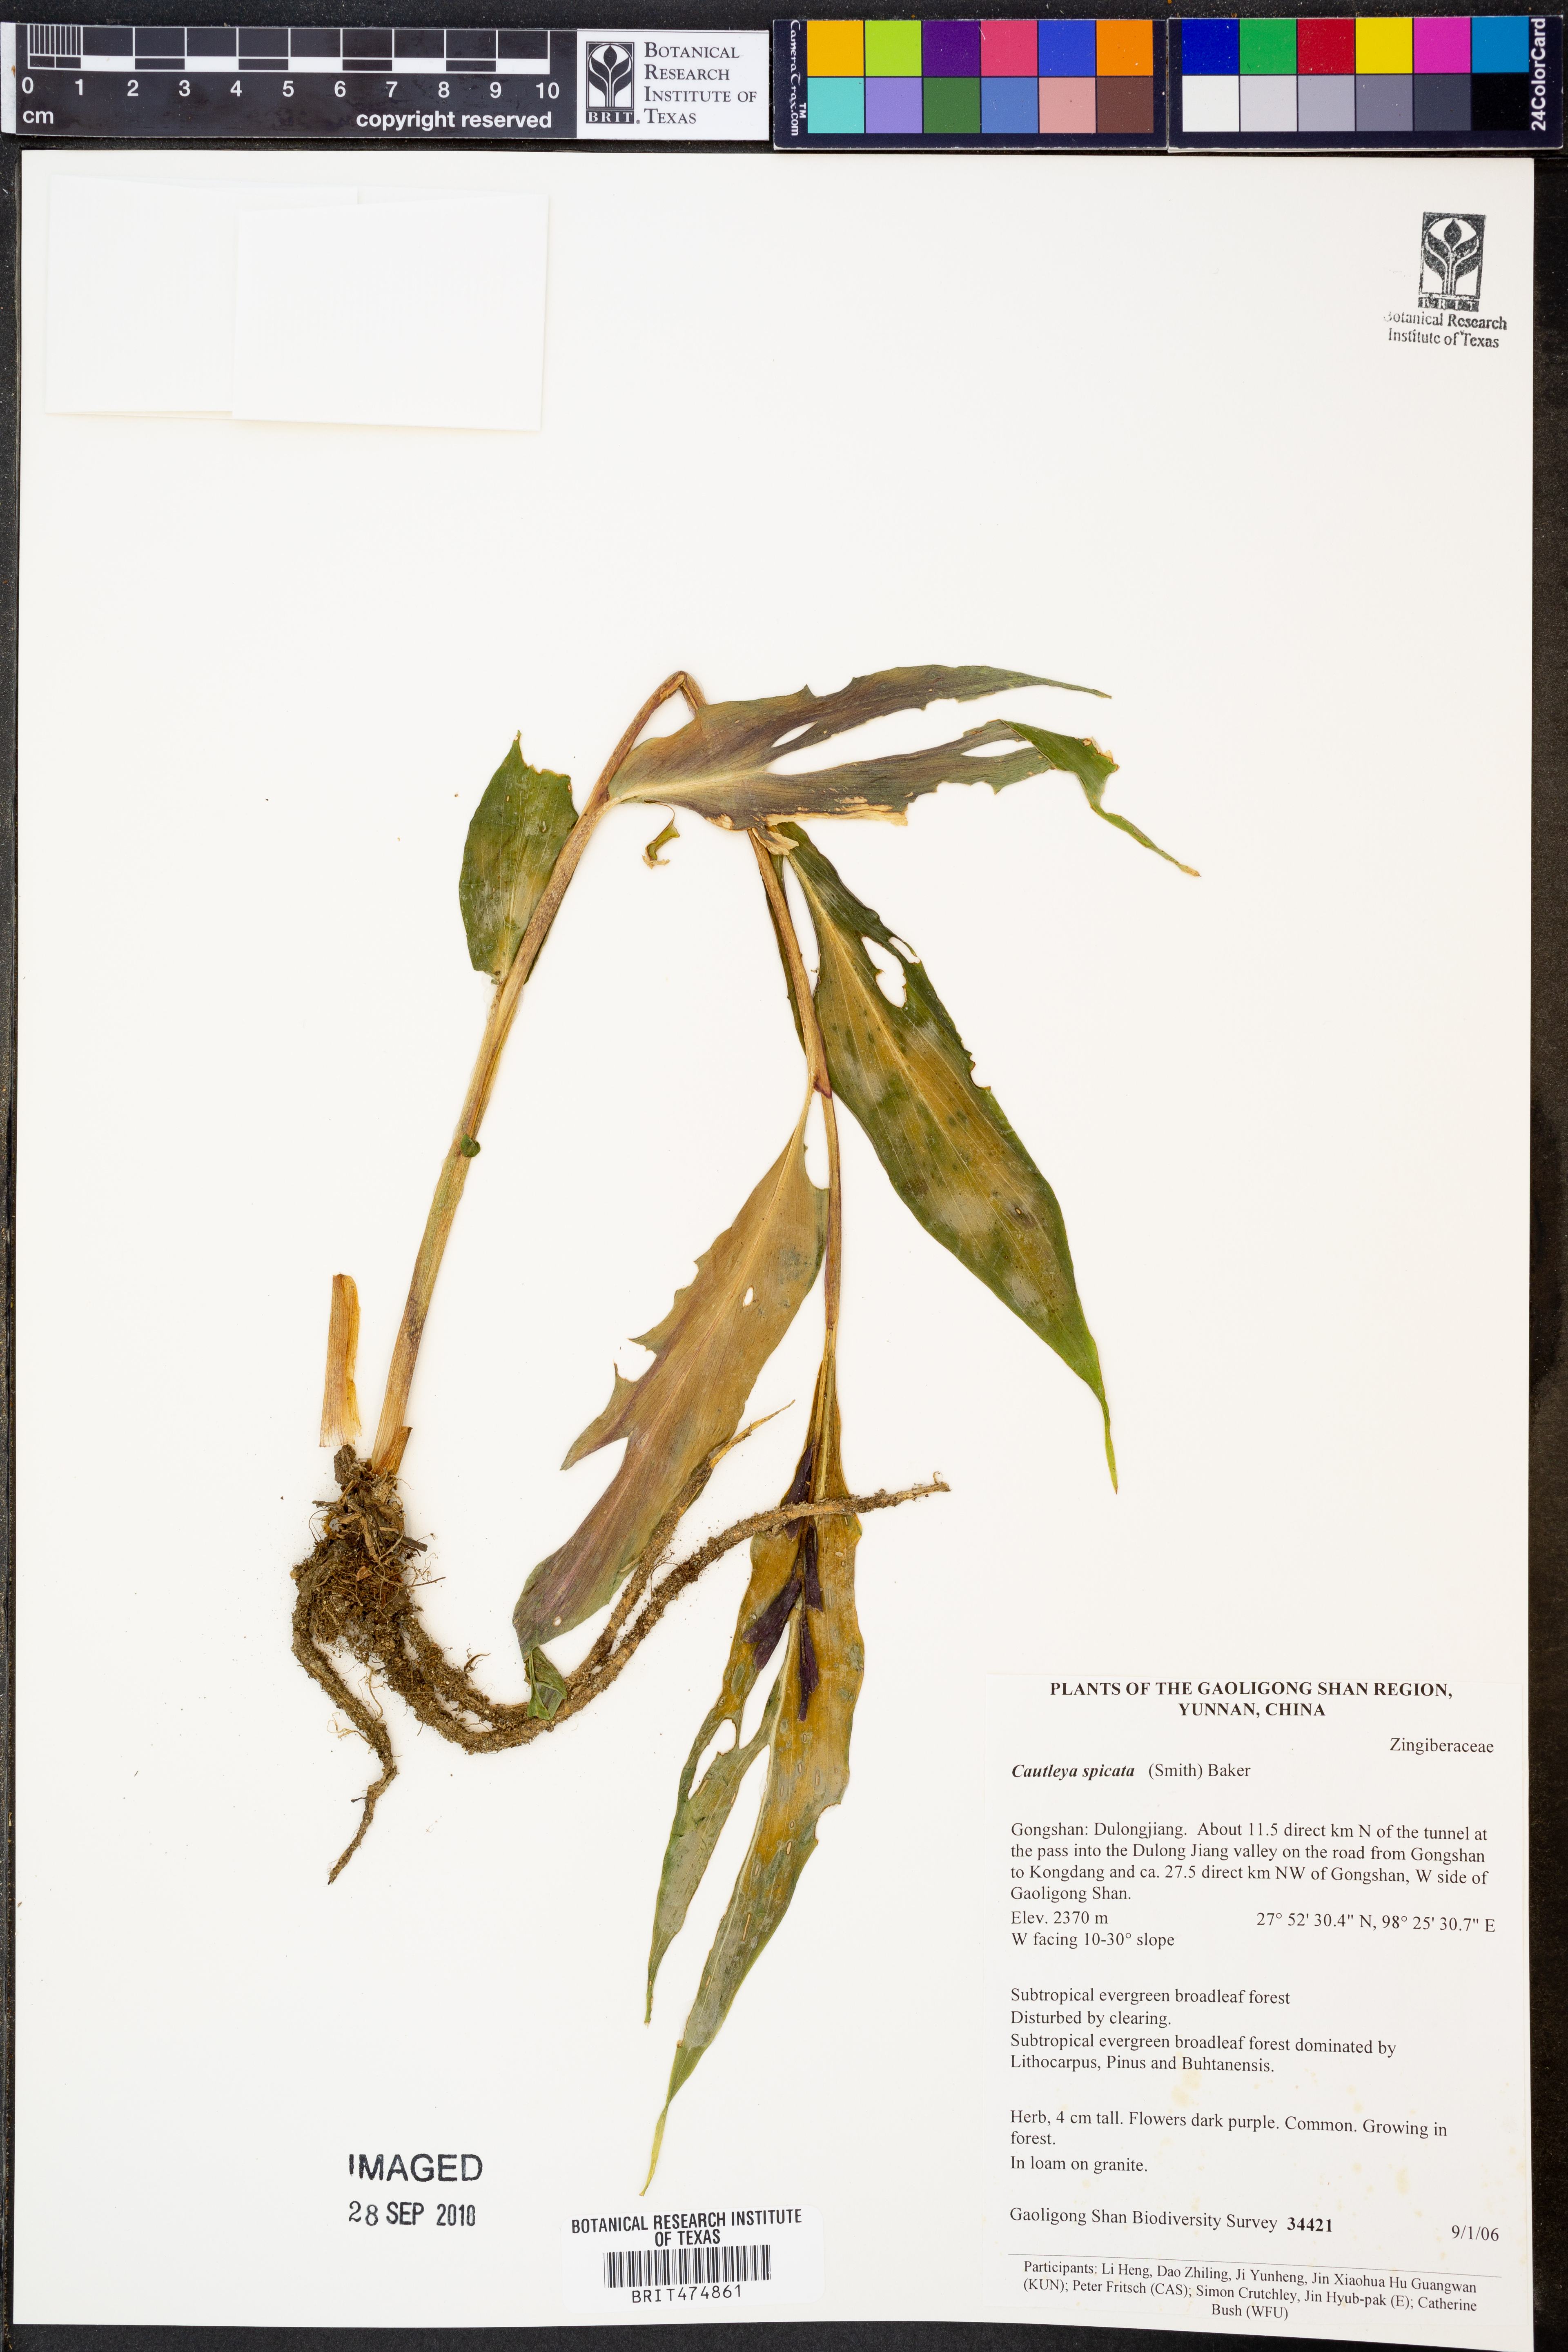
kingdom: Plantae
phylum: Tracheophyta
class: Liliopsida
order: Zingiberales
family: Zingiberaceae
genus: Cautleya
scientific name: Cautleya spicata
